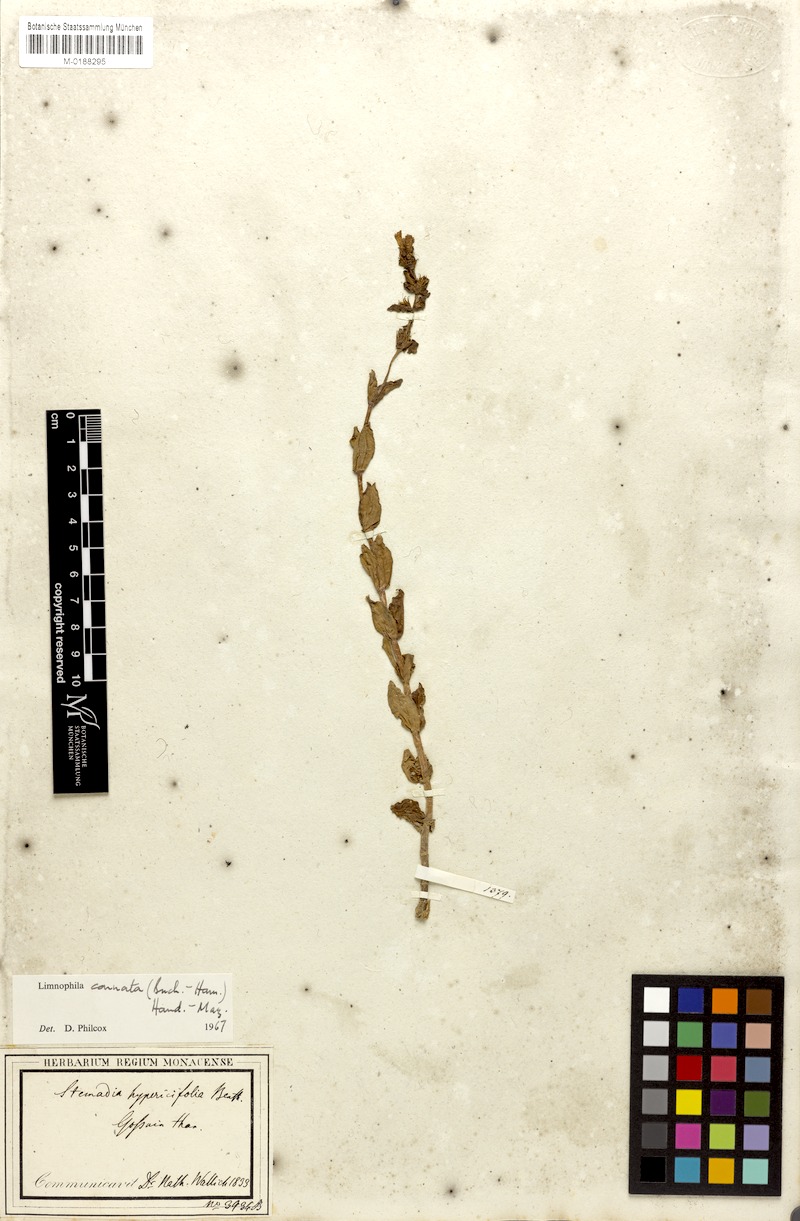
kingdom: Plantae
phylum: Tracheophyta
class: Magnoliopsida
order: Lamiales
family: Plantaginaceae
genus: Limnophila
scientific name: Limnophila connata
